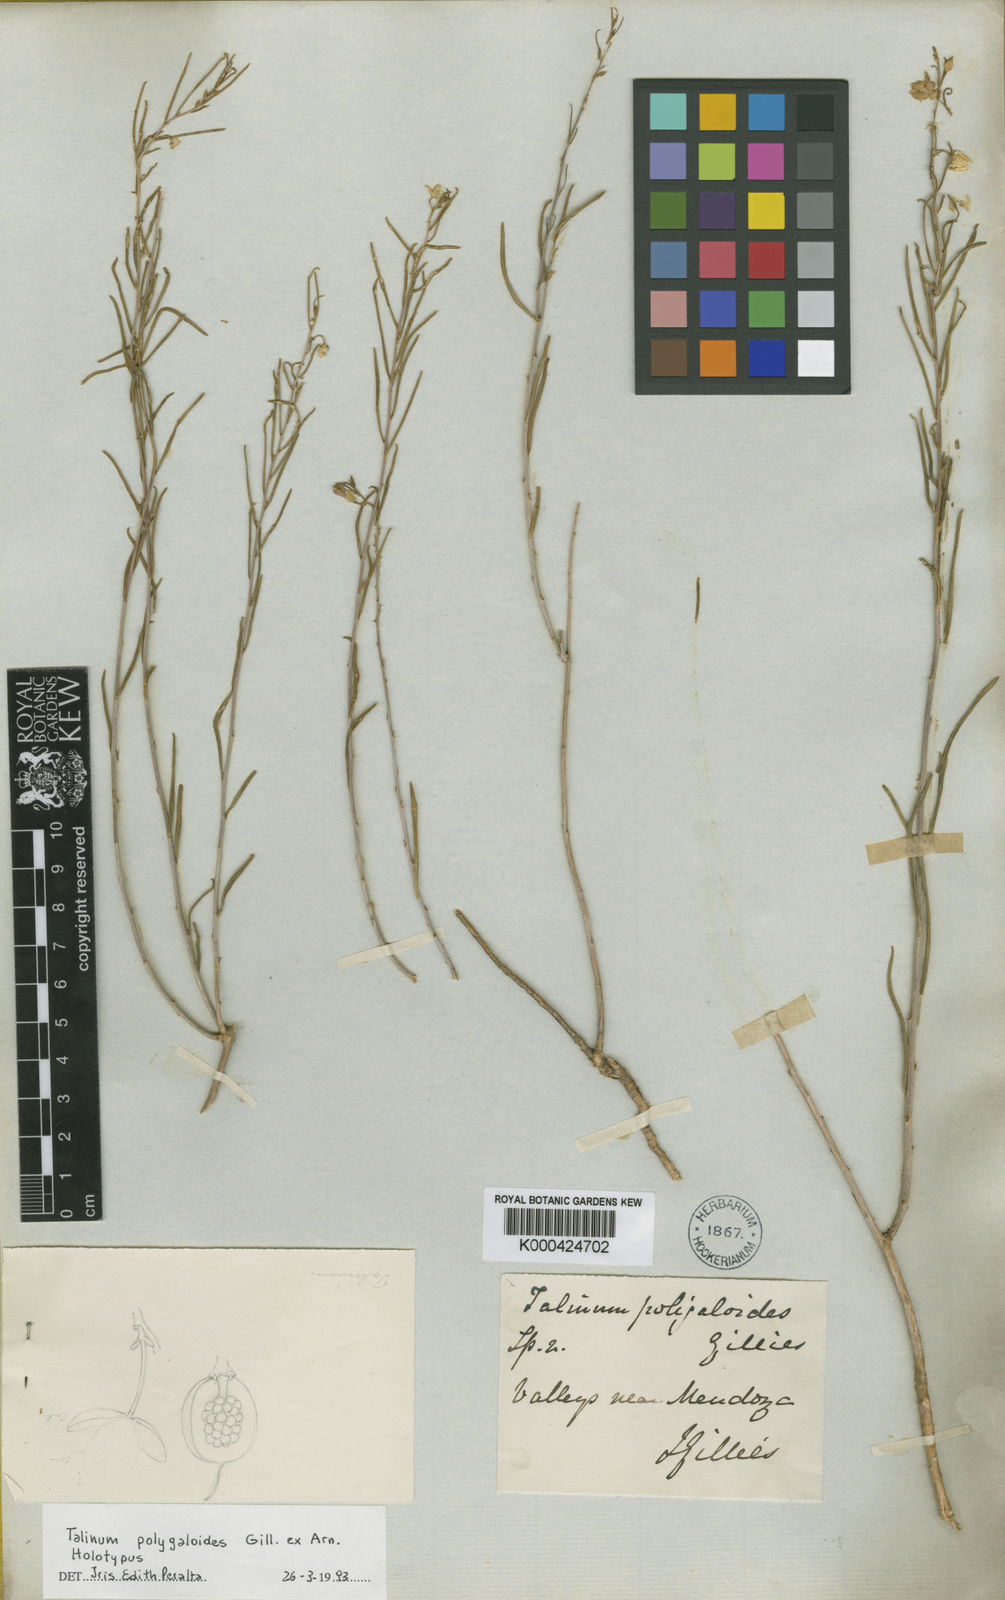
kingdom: Plantae
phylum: Tracheophyta
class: Magnoliopsida
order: Caryophyllales
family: Talinaceae
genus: Talinum
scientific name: Talinum polygaloides
